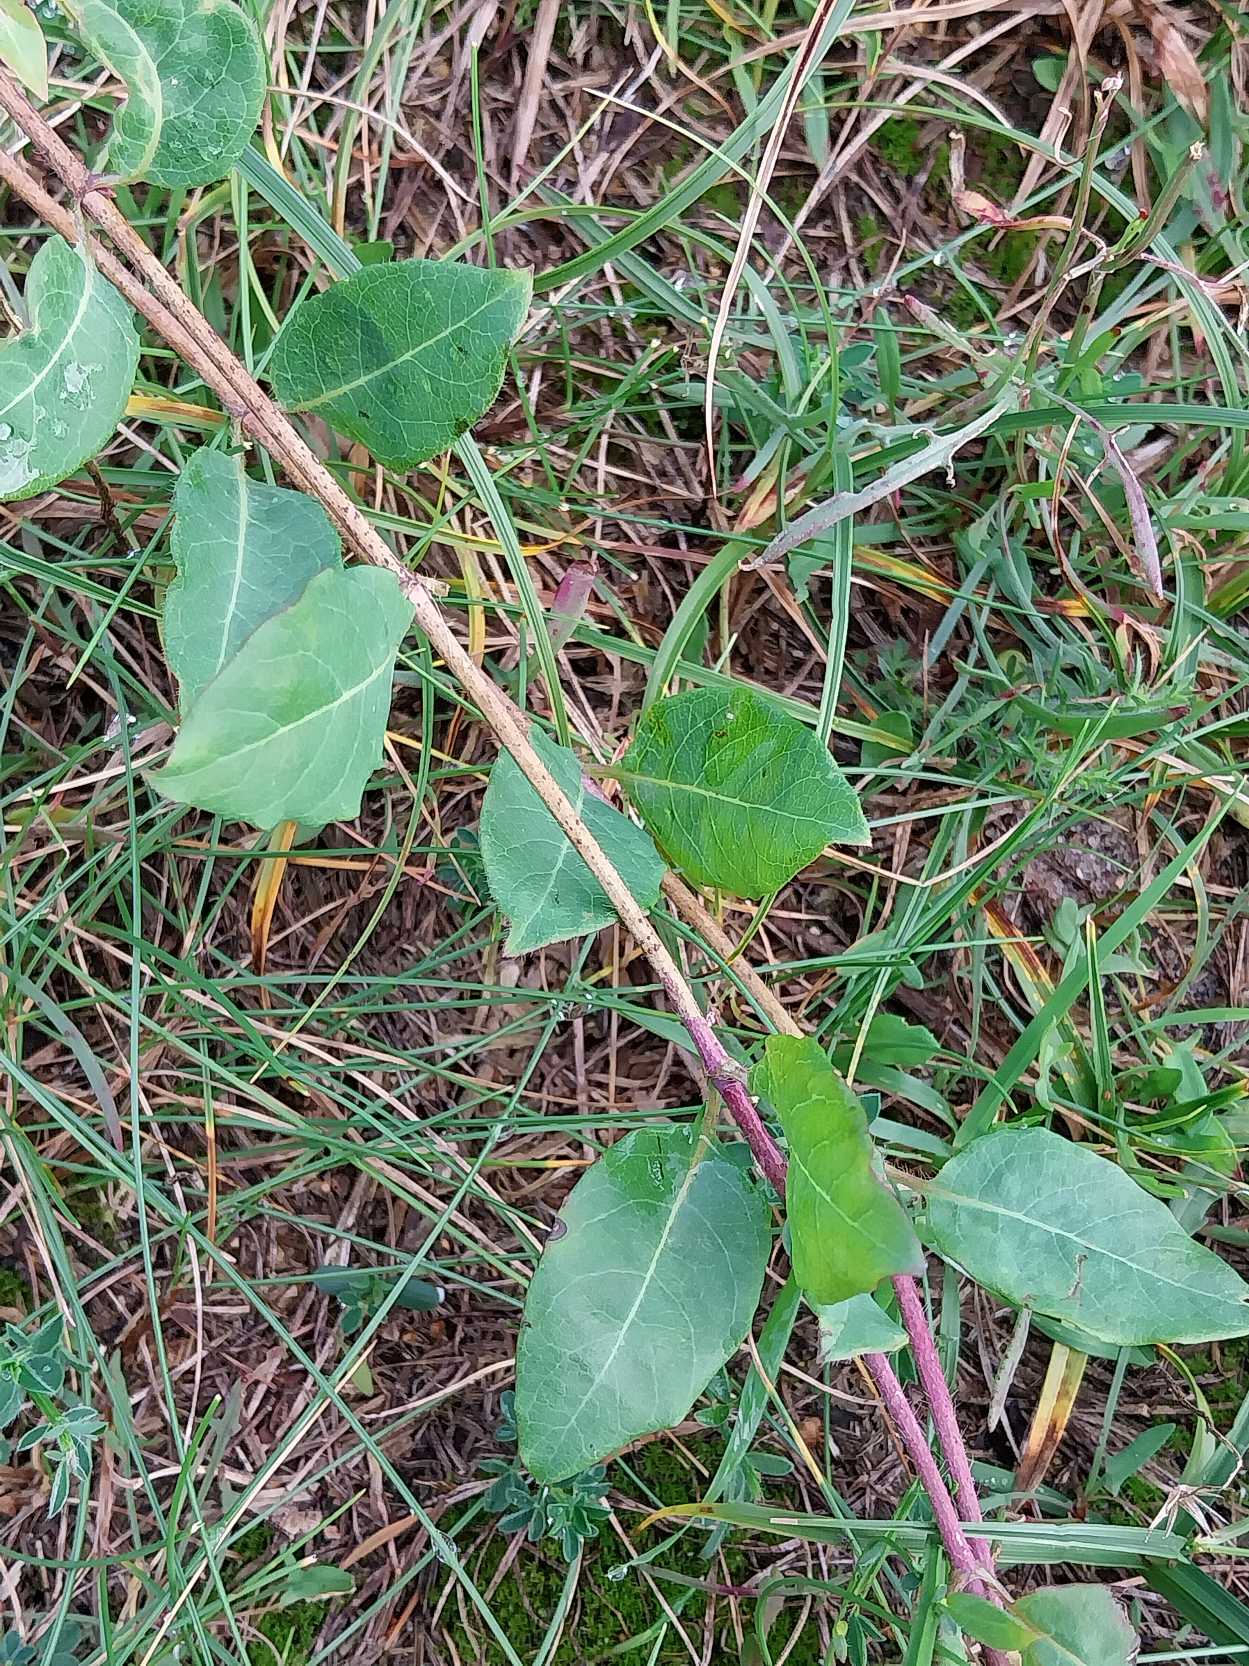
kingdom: Plantae
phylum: Tracheophyta
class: Magnoliopsida
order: Dipsacales
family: Caprifoliaceae
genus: Lonicera
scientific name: Lonicera periclymenum
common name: Almindelig gedeblad
